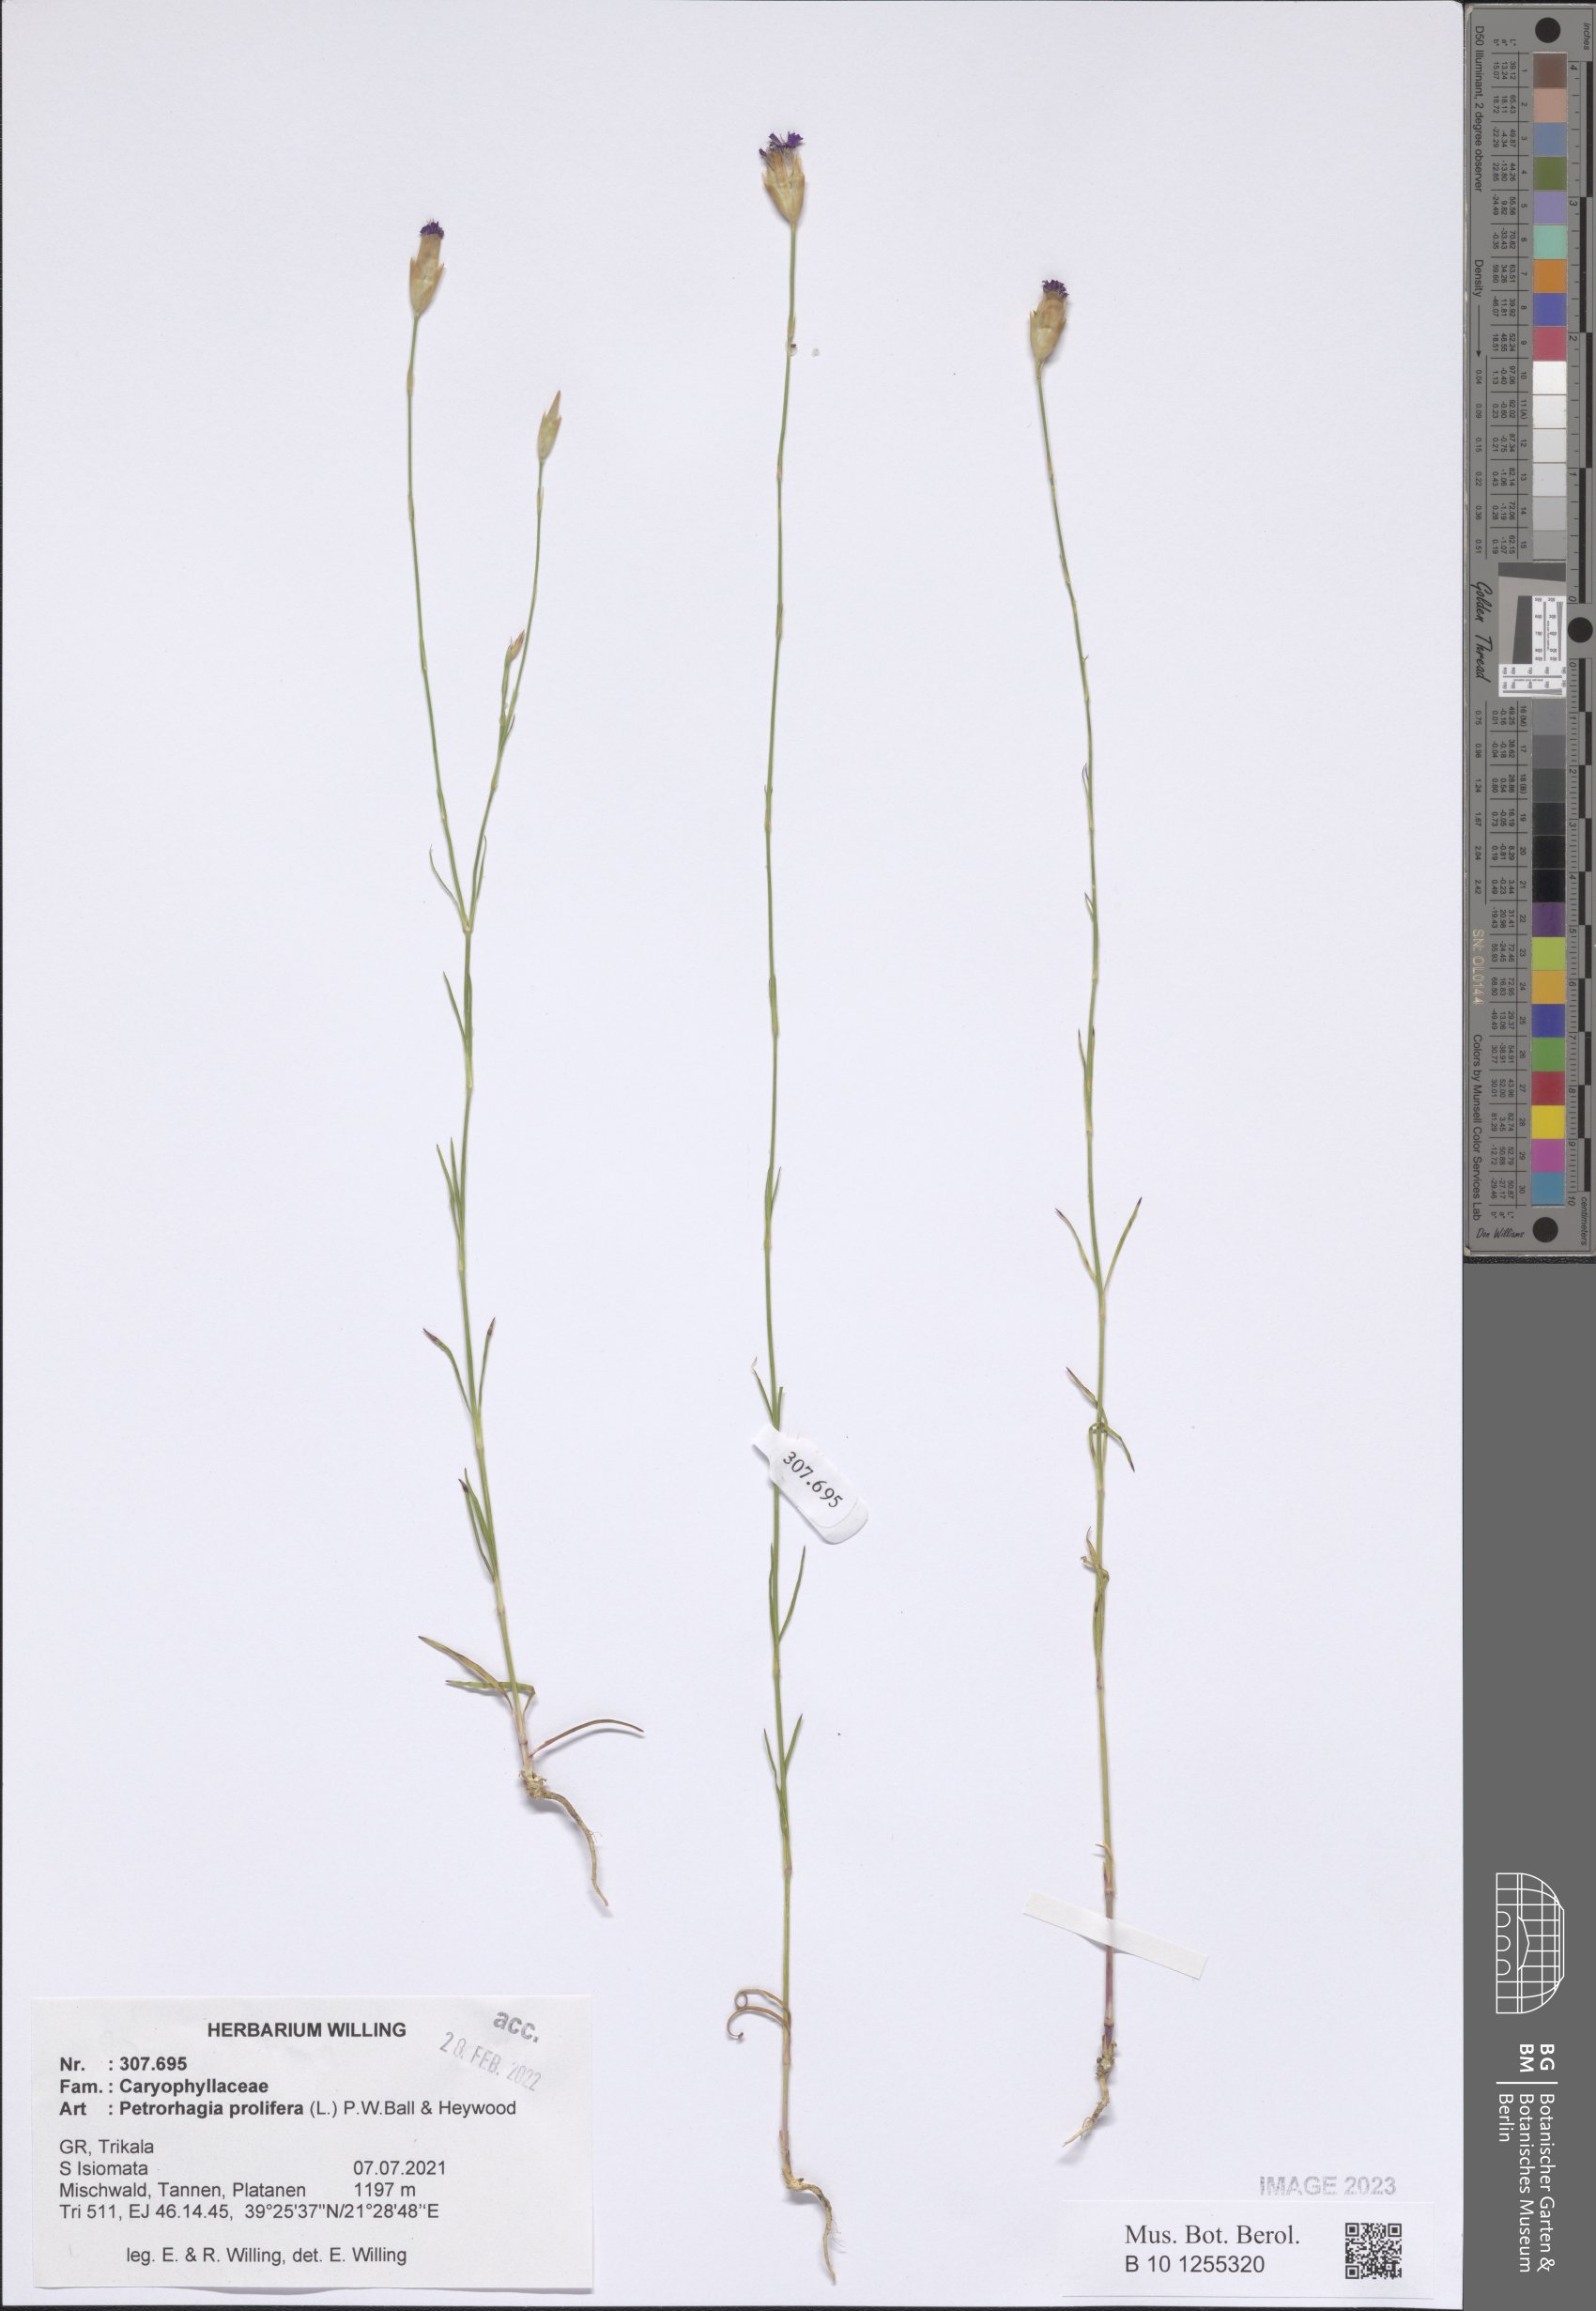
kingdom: Plantae
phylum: Tracheophyta
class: Magnoliopsida
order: Caryophyllales
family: Caryophyllaceae
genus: Petrorhagia
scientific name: Petrorhagia prolifera
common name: Proliferous pink
